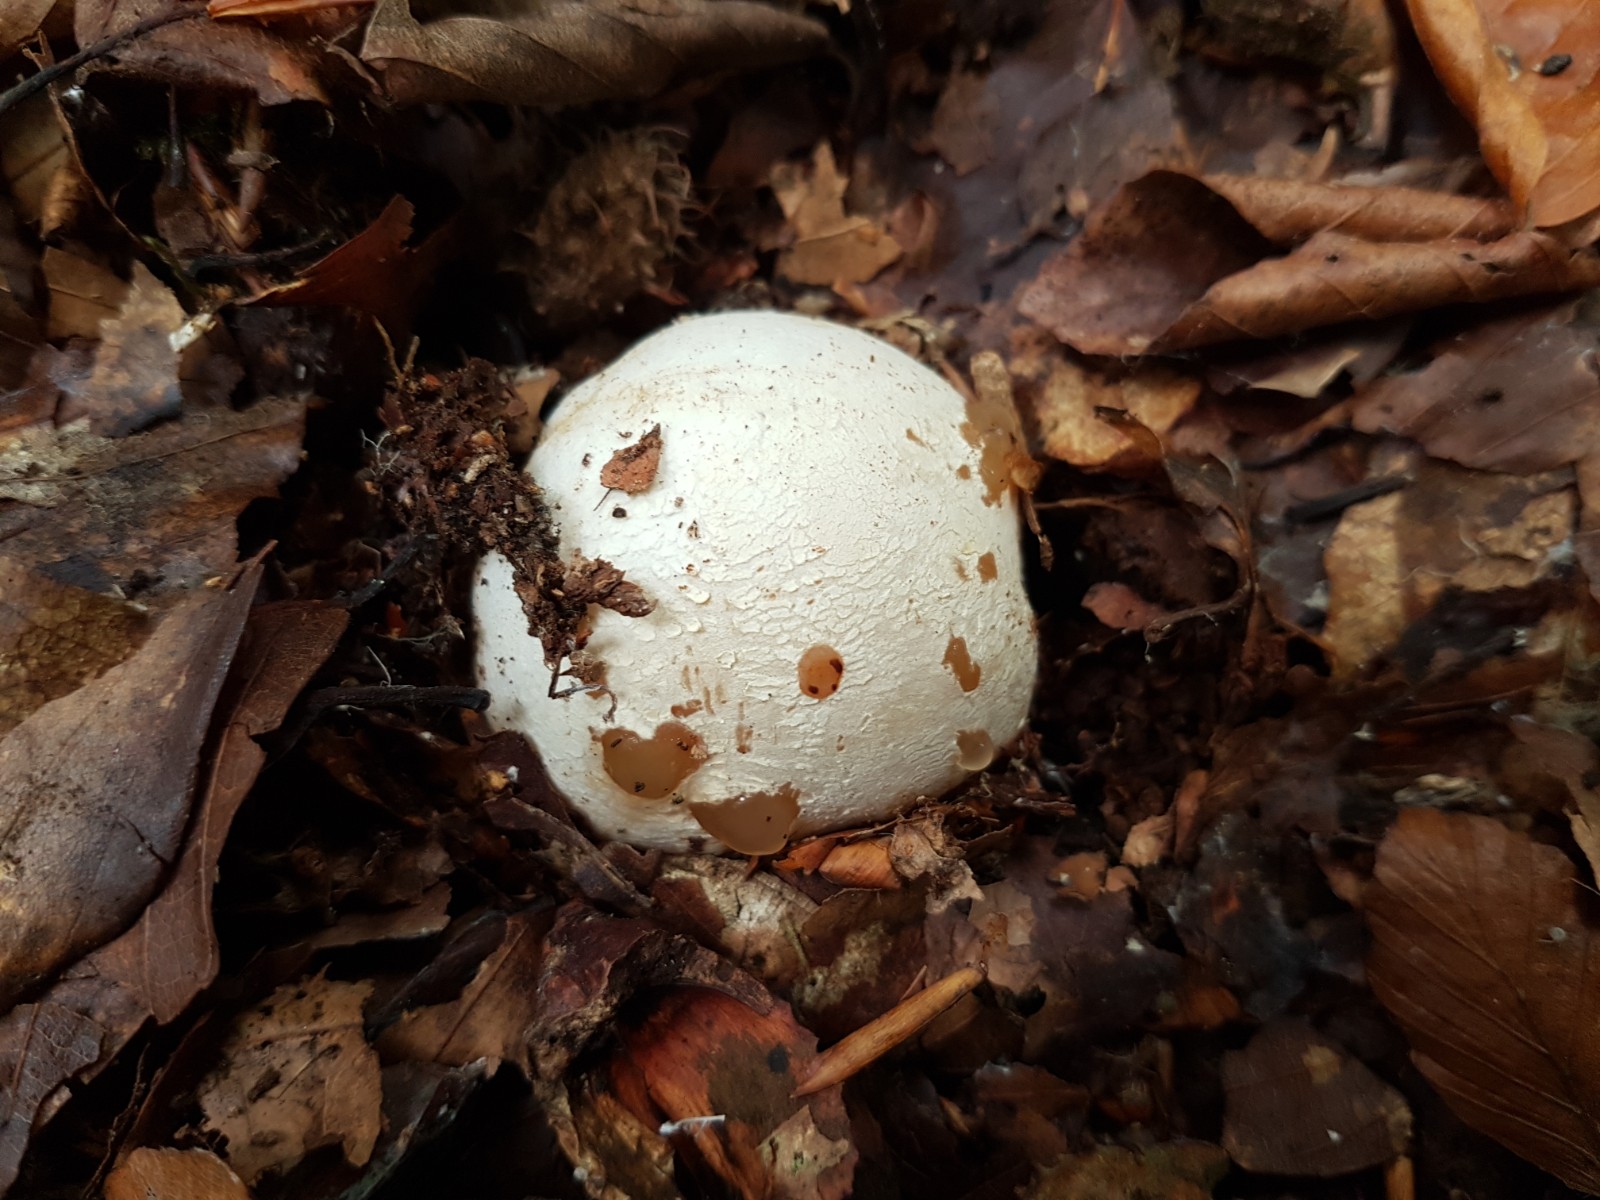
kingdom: Fungi
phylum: Basidiomycota
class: Agaricomycetes
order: Phallales
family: Phallaceae
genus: Phallus
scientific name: Phallus impudicus
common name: almindelig stinksvamp
